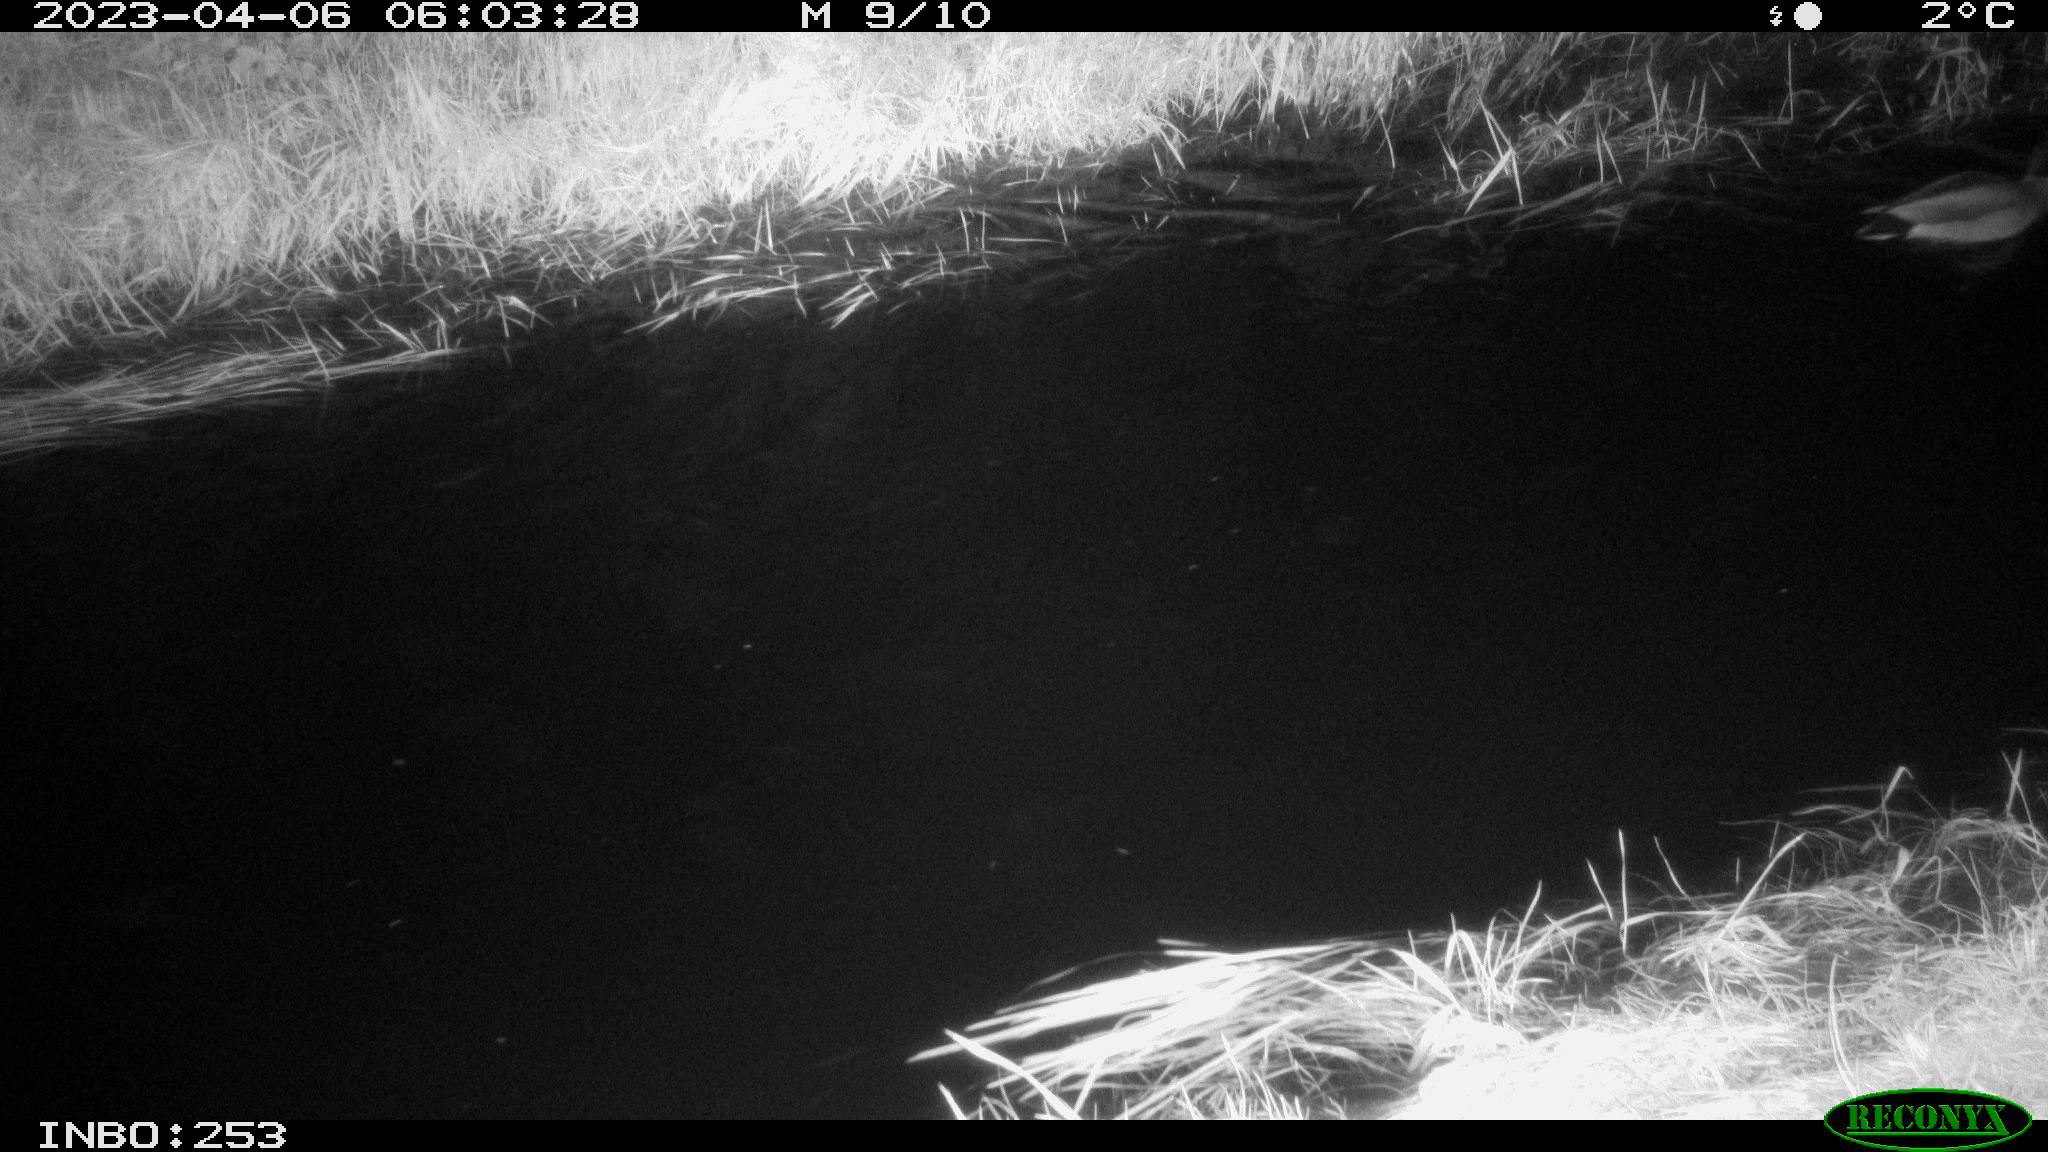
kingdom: Animalia
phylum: Chordata
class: Aves
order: Anseriformes
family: Anatidae
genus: Anas
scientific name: Anas
